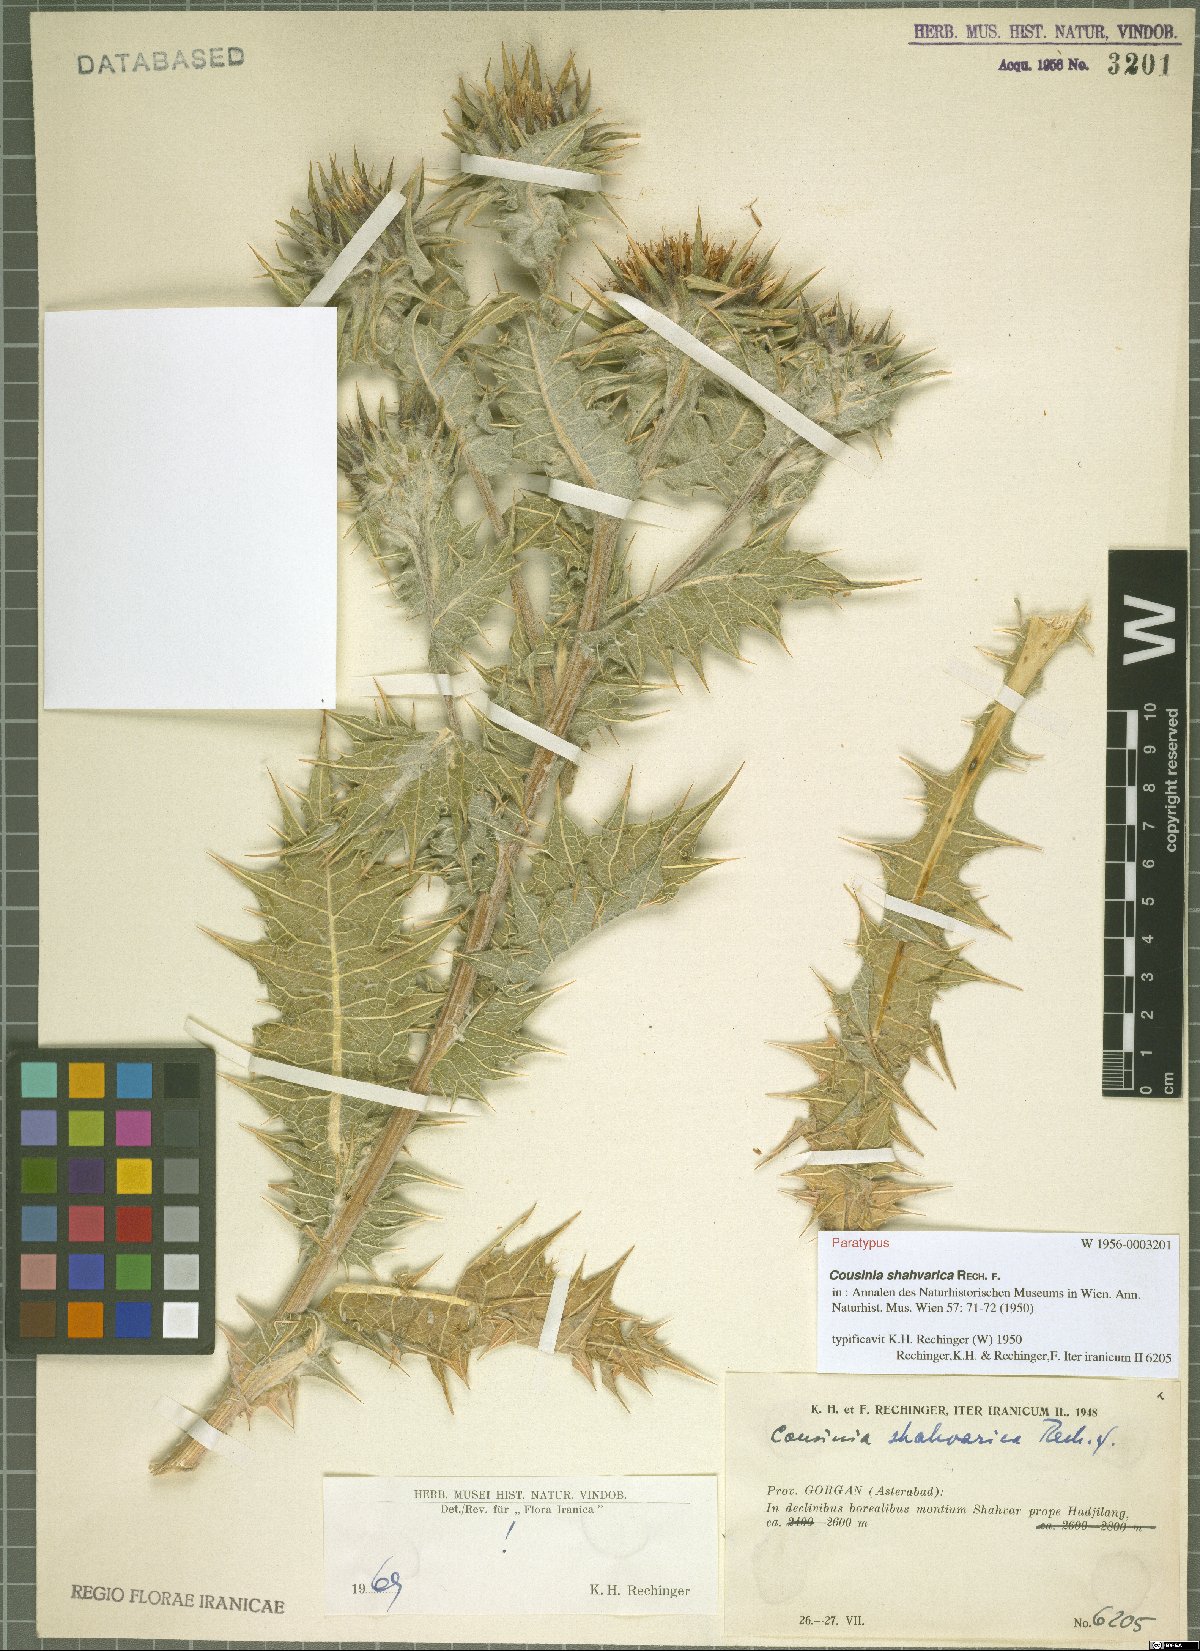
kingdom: Plantae
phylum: Tracheophyta
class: Magnoliopsida
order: Asterales
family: Asteraceae
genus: Cousinia
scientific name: Cousinia shahvarica
